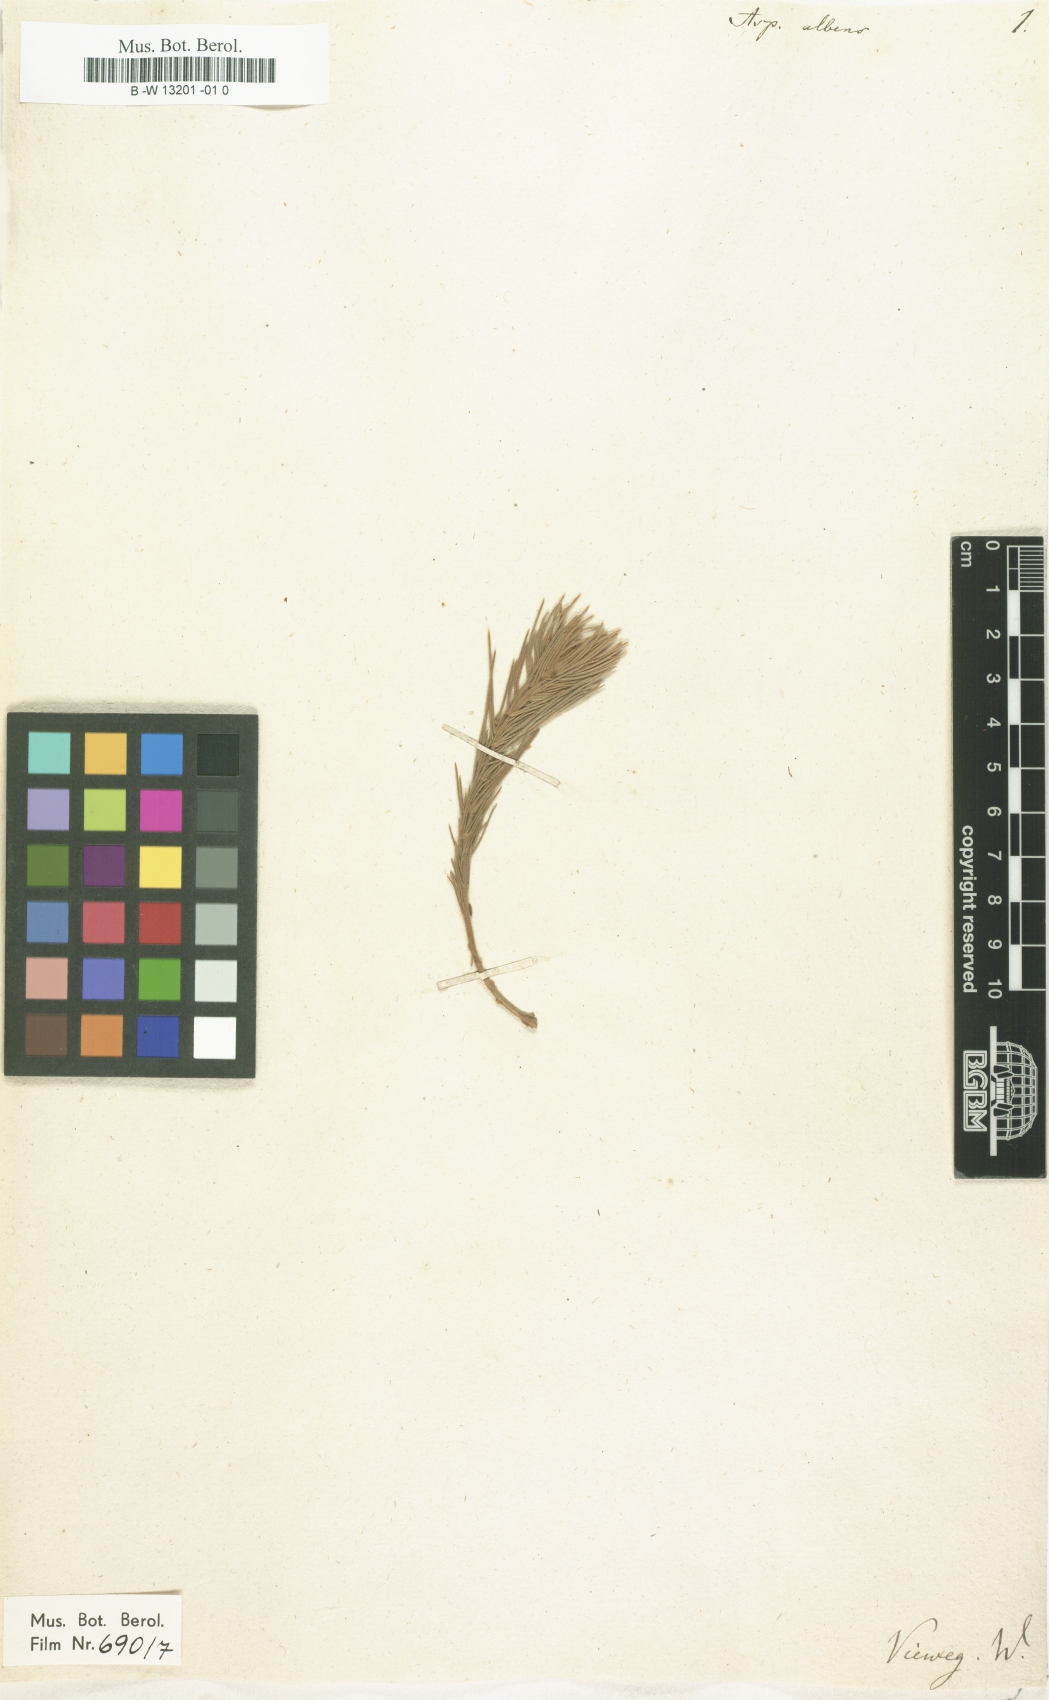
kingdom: Plantae
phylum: Tracheophyta
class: Magnoliopsida
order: Fabales
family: Fabaceae
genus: Aspalathus
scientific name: Aspalathus albens
